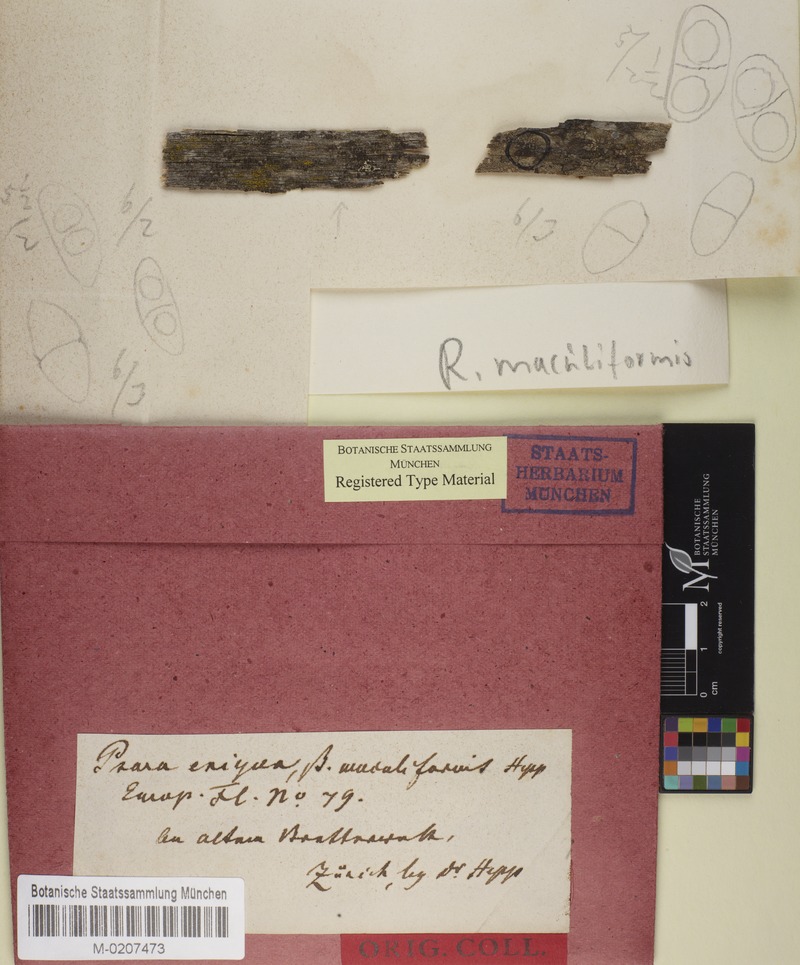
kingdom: Fungi
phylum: Ascomycota
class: Lecanoromycetes
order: Caliciales
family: Physciaceae
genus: Rinodina
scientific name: Rinodina archaea
